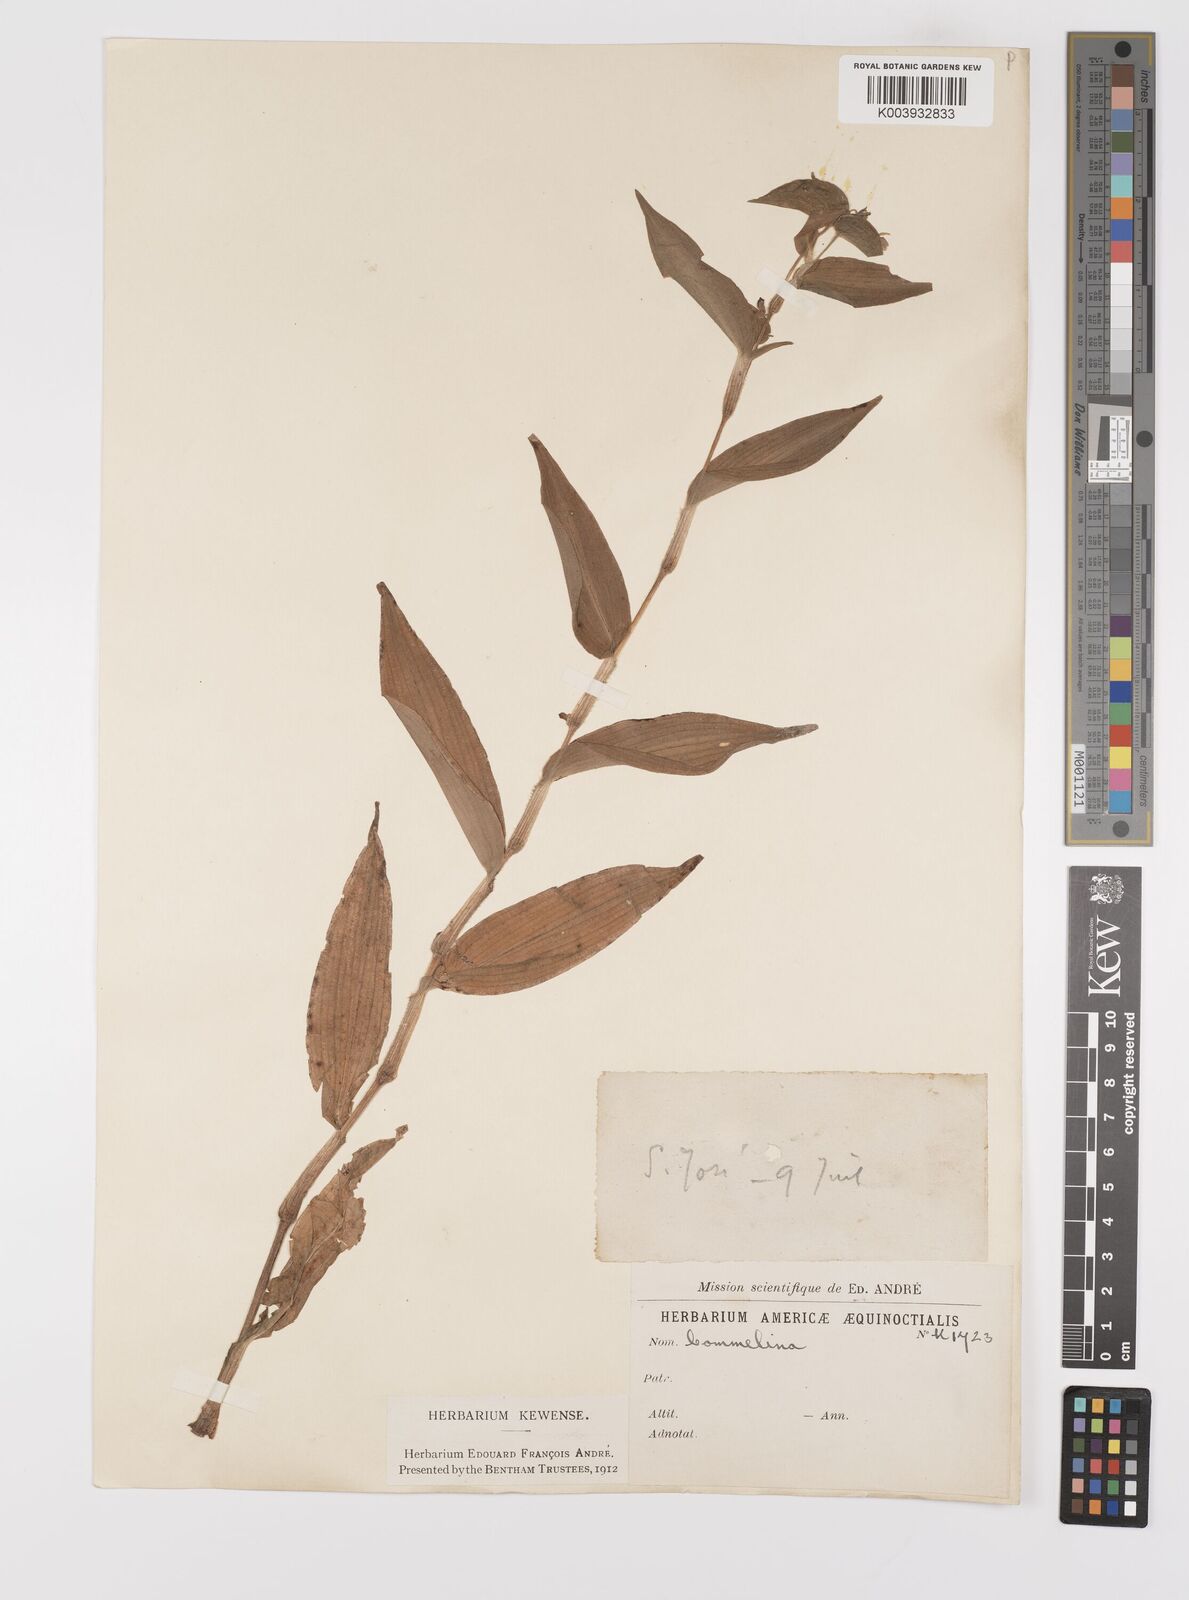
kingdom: Plantae
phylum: Tracheophyta
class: Liliopsida
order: Commelinales
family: Commelinaceae
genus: Commelina
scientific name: Commelina
